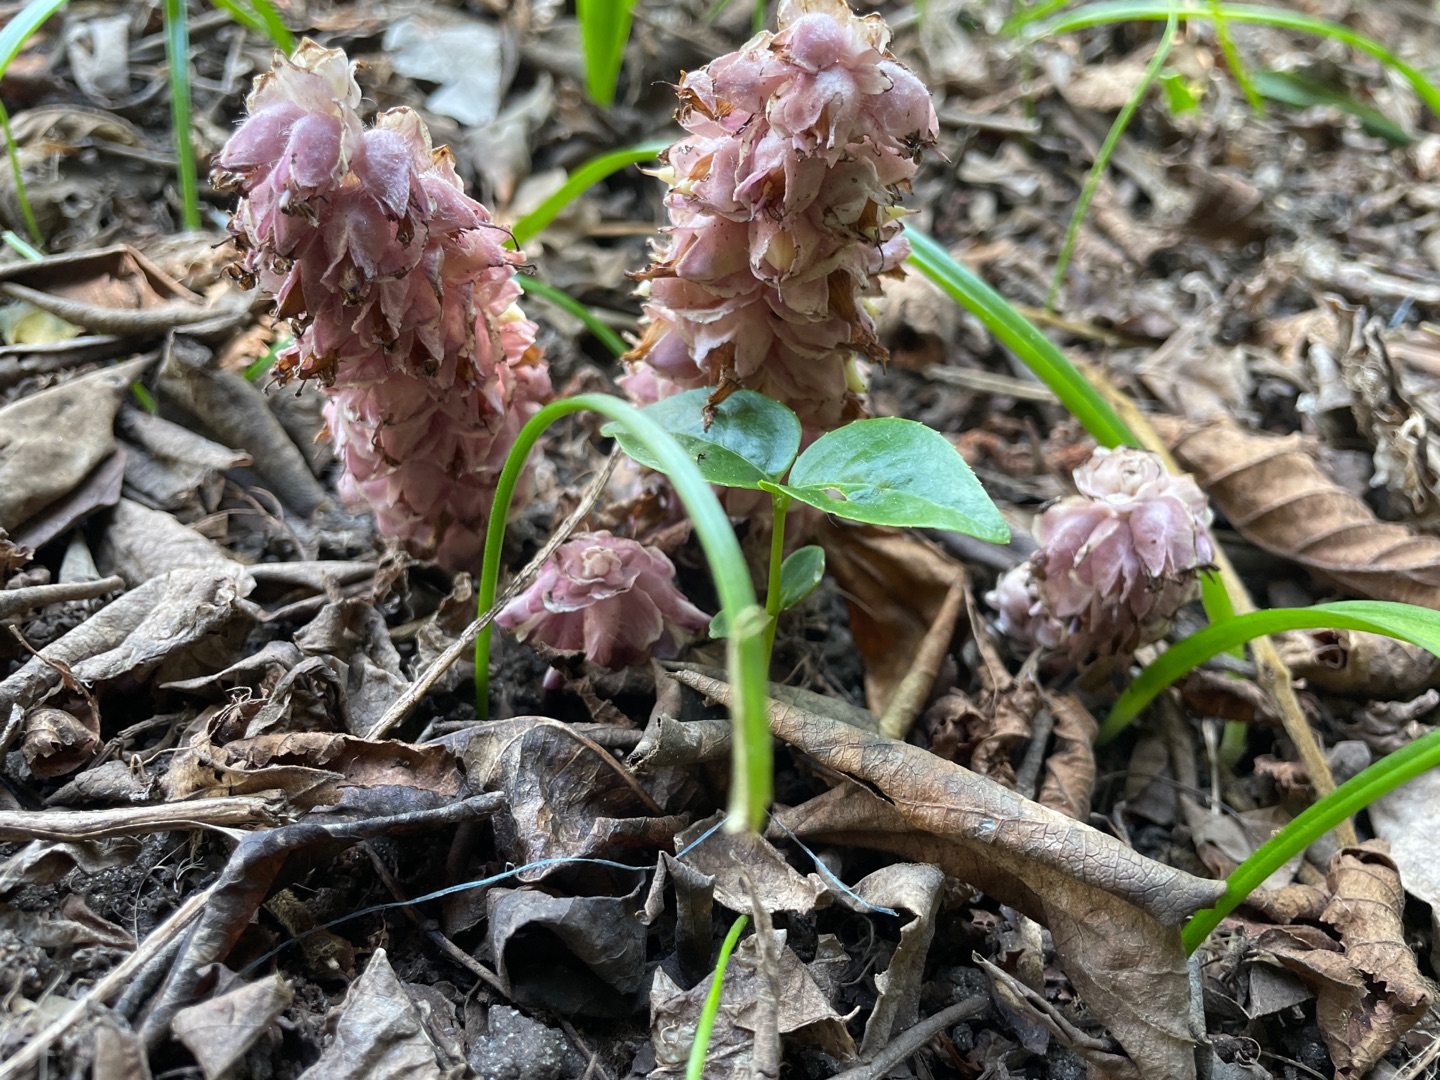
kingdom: Plantae
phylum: Tracheophyta
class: Magnoliopsida
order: Lamiales
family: Orobanchaceae
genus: Lathraea
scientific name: Lathraea squamaria
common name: Skælrod
